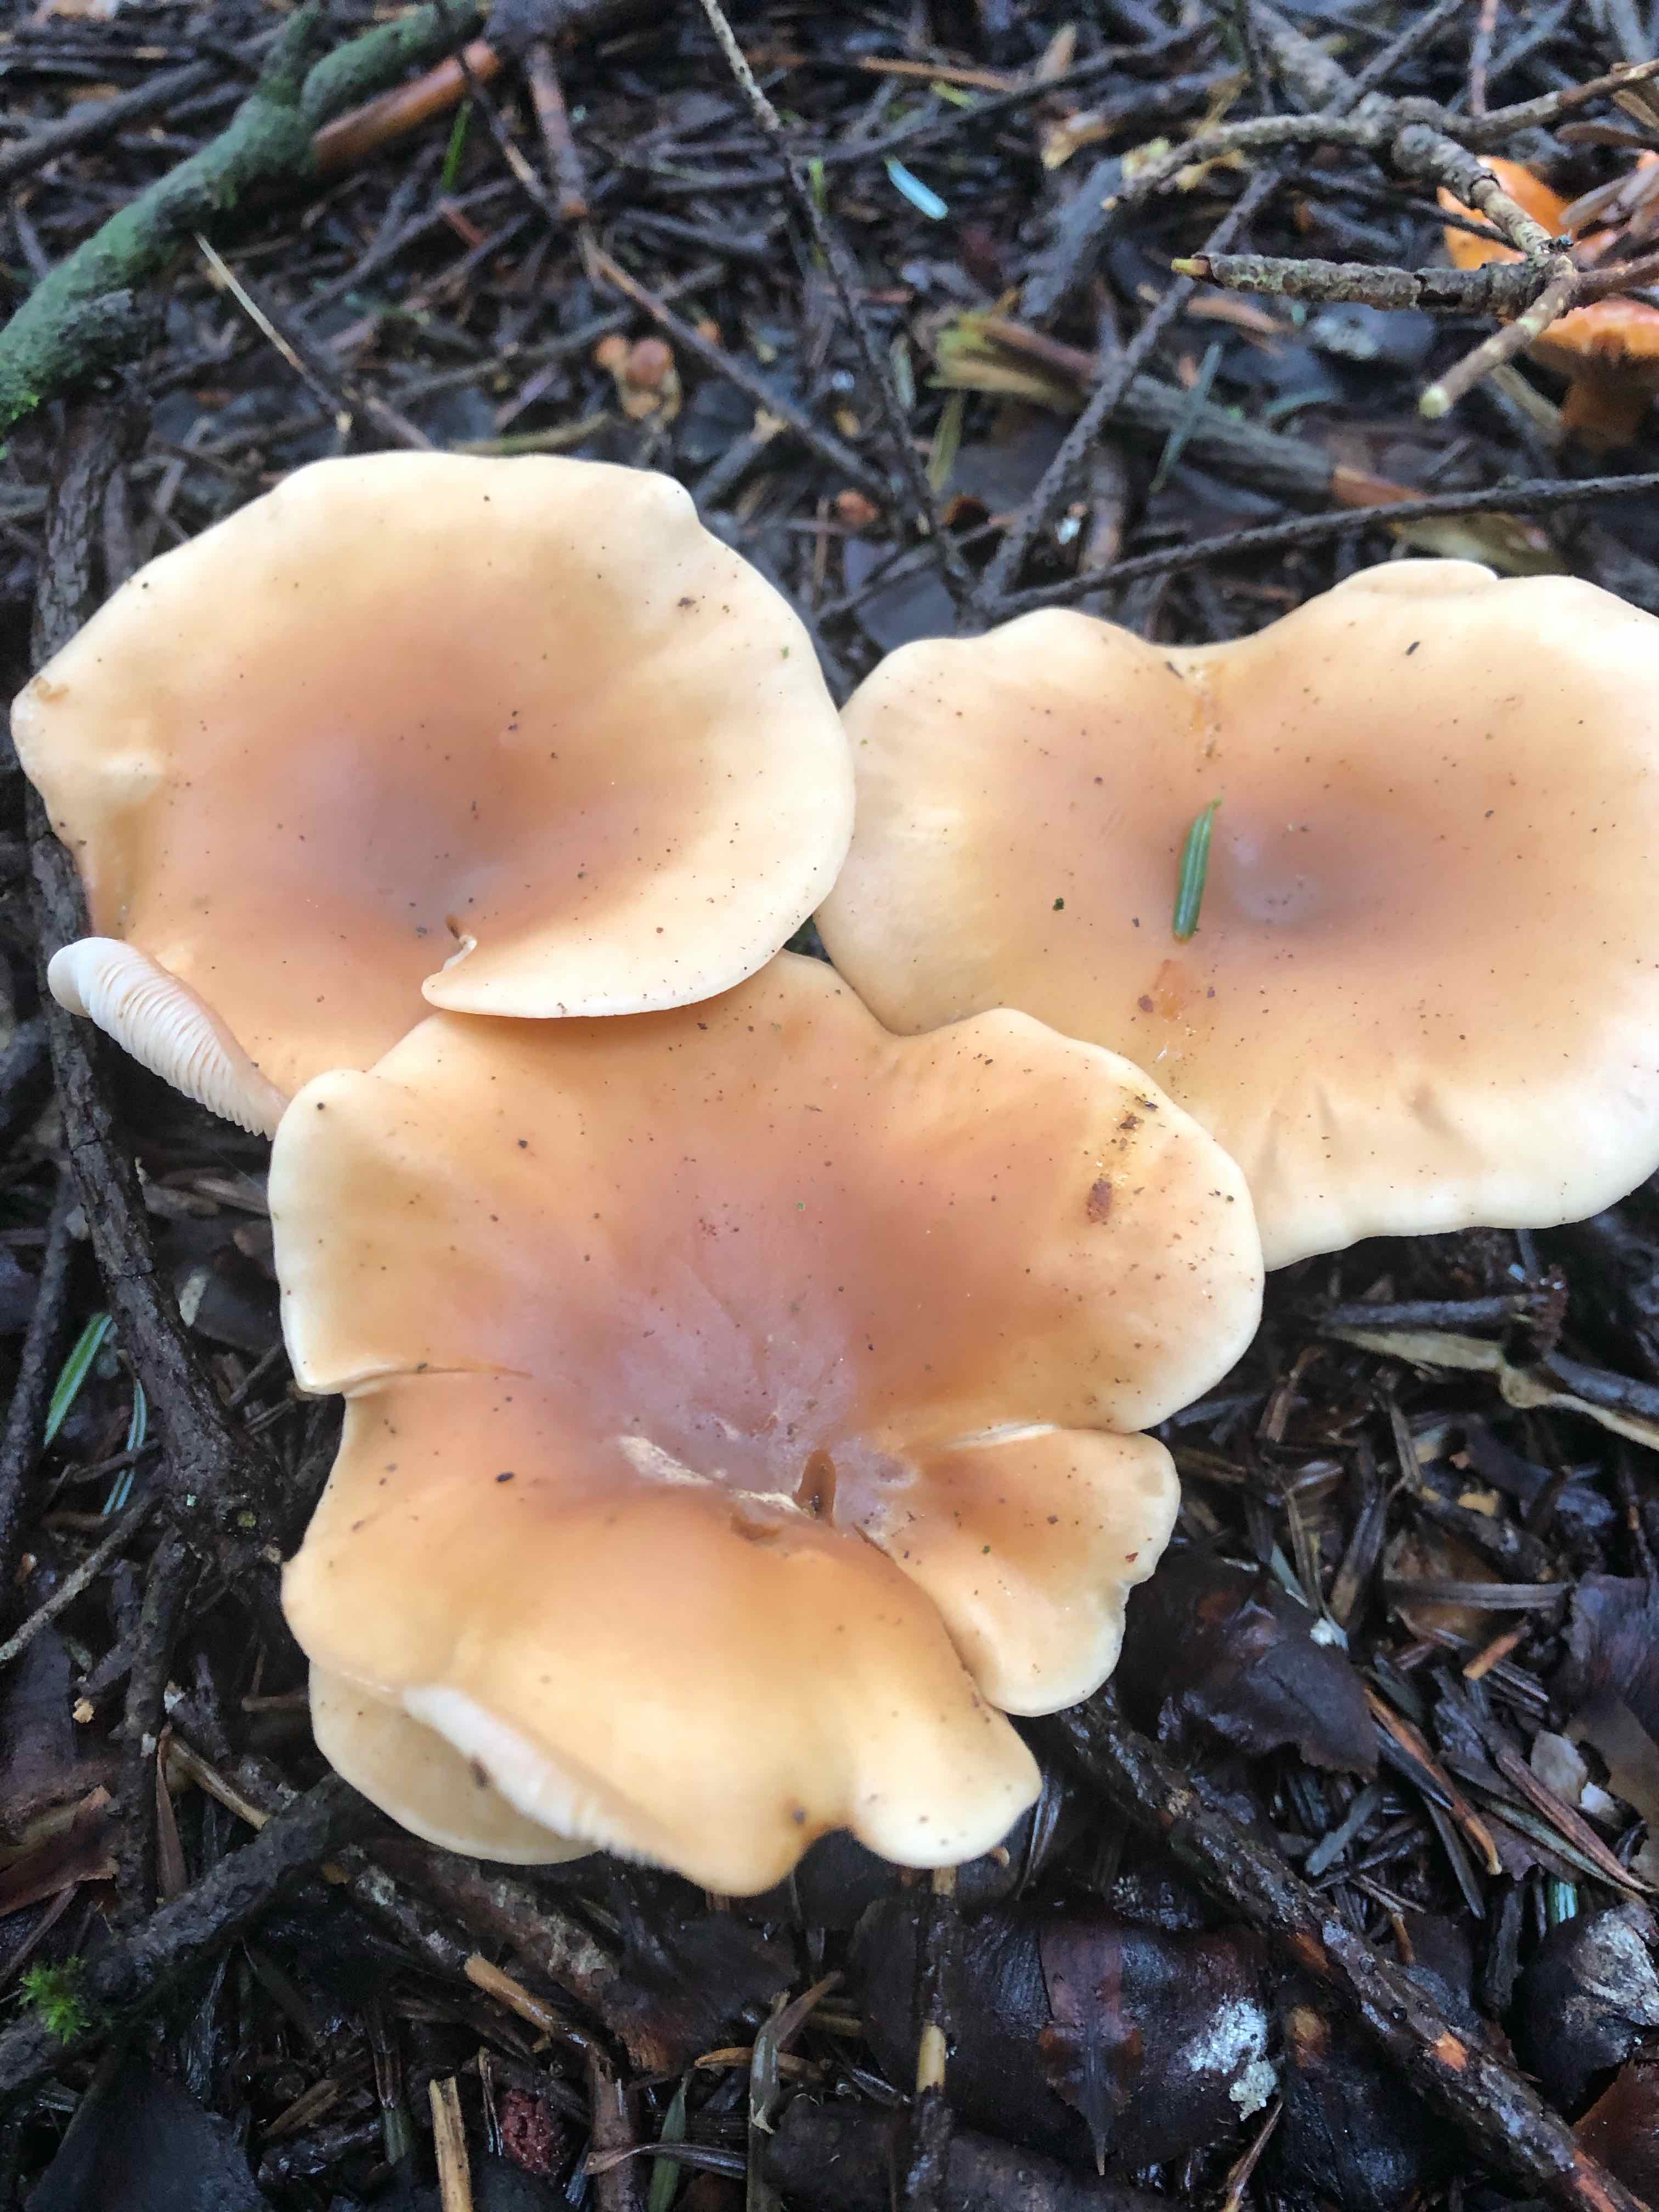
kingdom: Fungi
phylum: Basidiomycota
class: Agaricomycetes
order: Agaricales
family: Tricholomataceae
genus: Paralepista
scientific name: Paralepista flaccida
